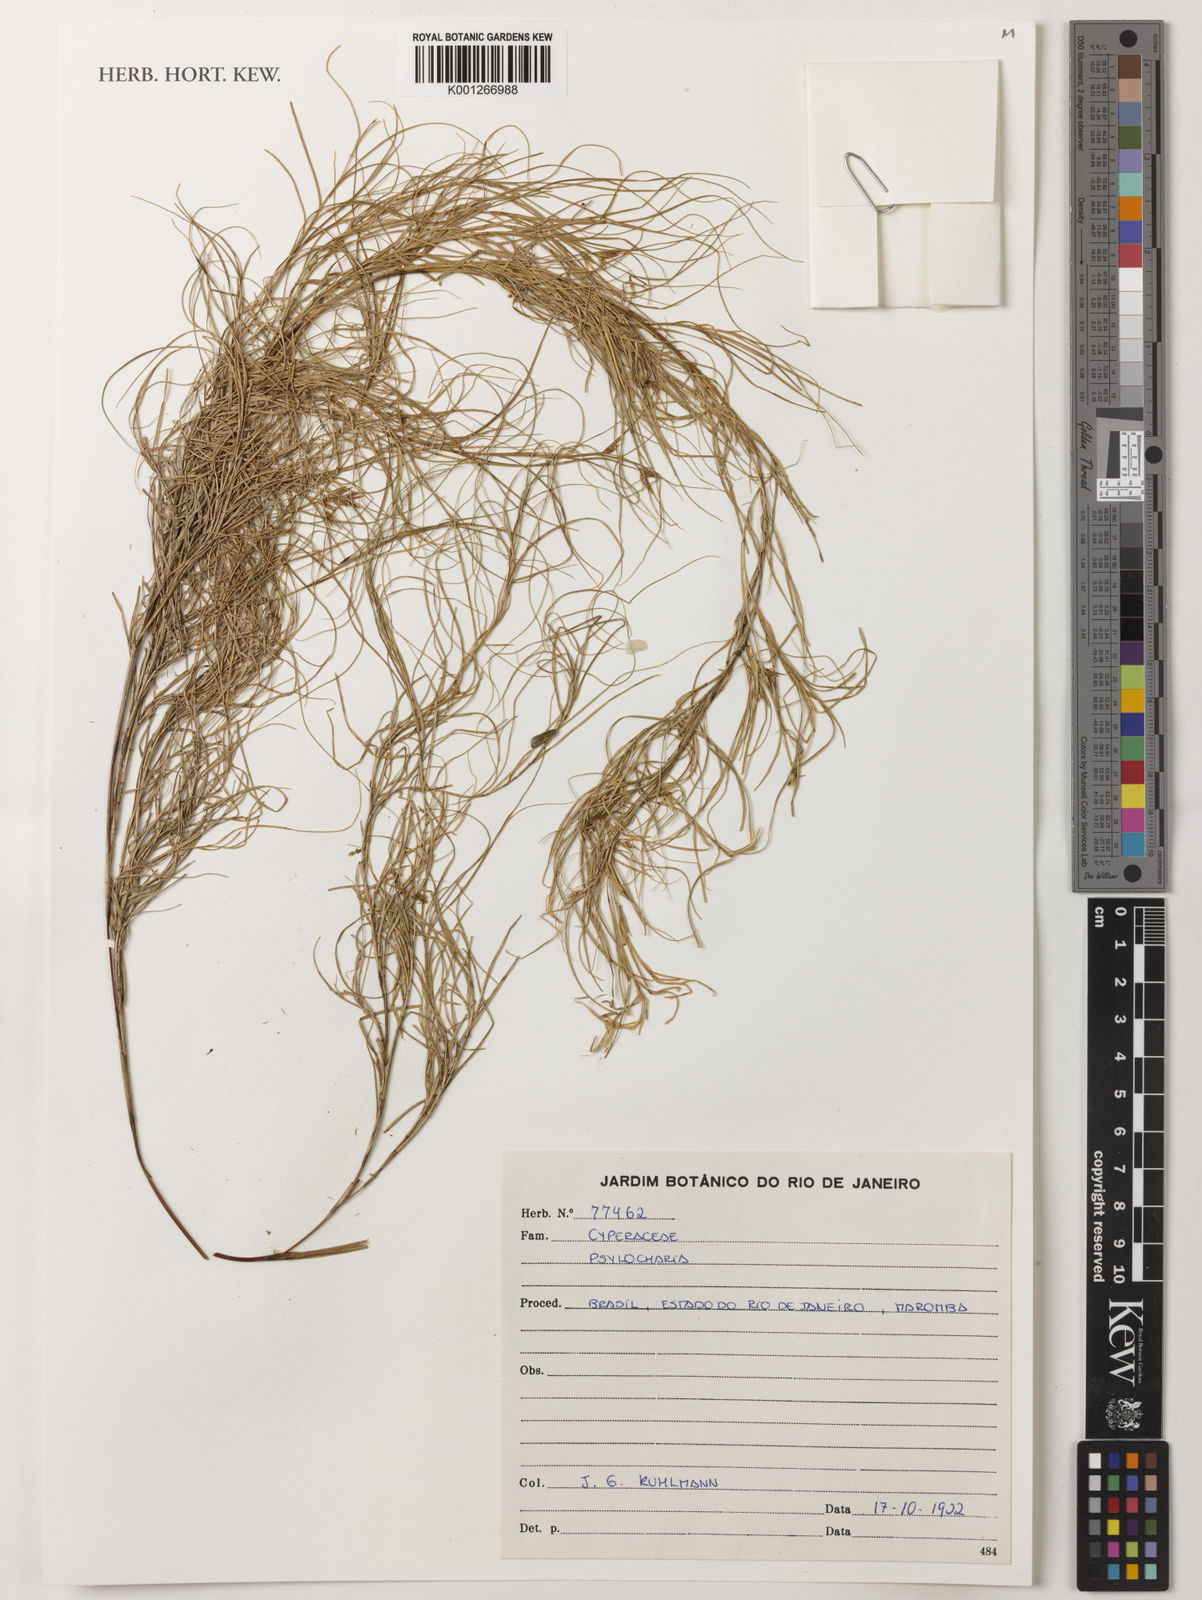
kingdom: Plantae
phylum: Tracheophyta
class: Liliopsida
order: Poales
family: Cyperaceae
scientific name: Cyperaceae
